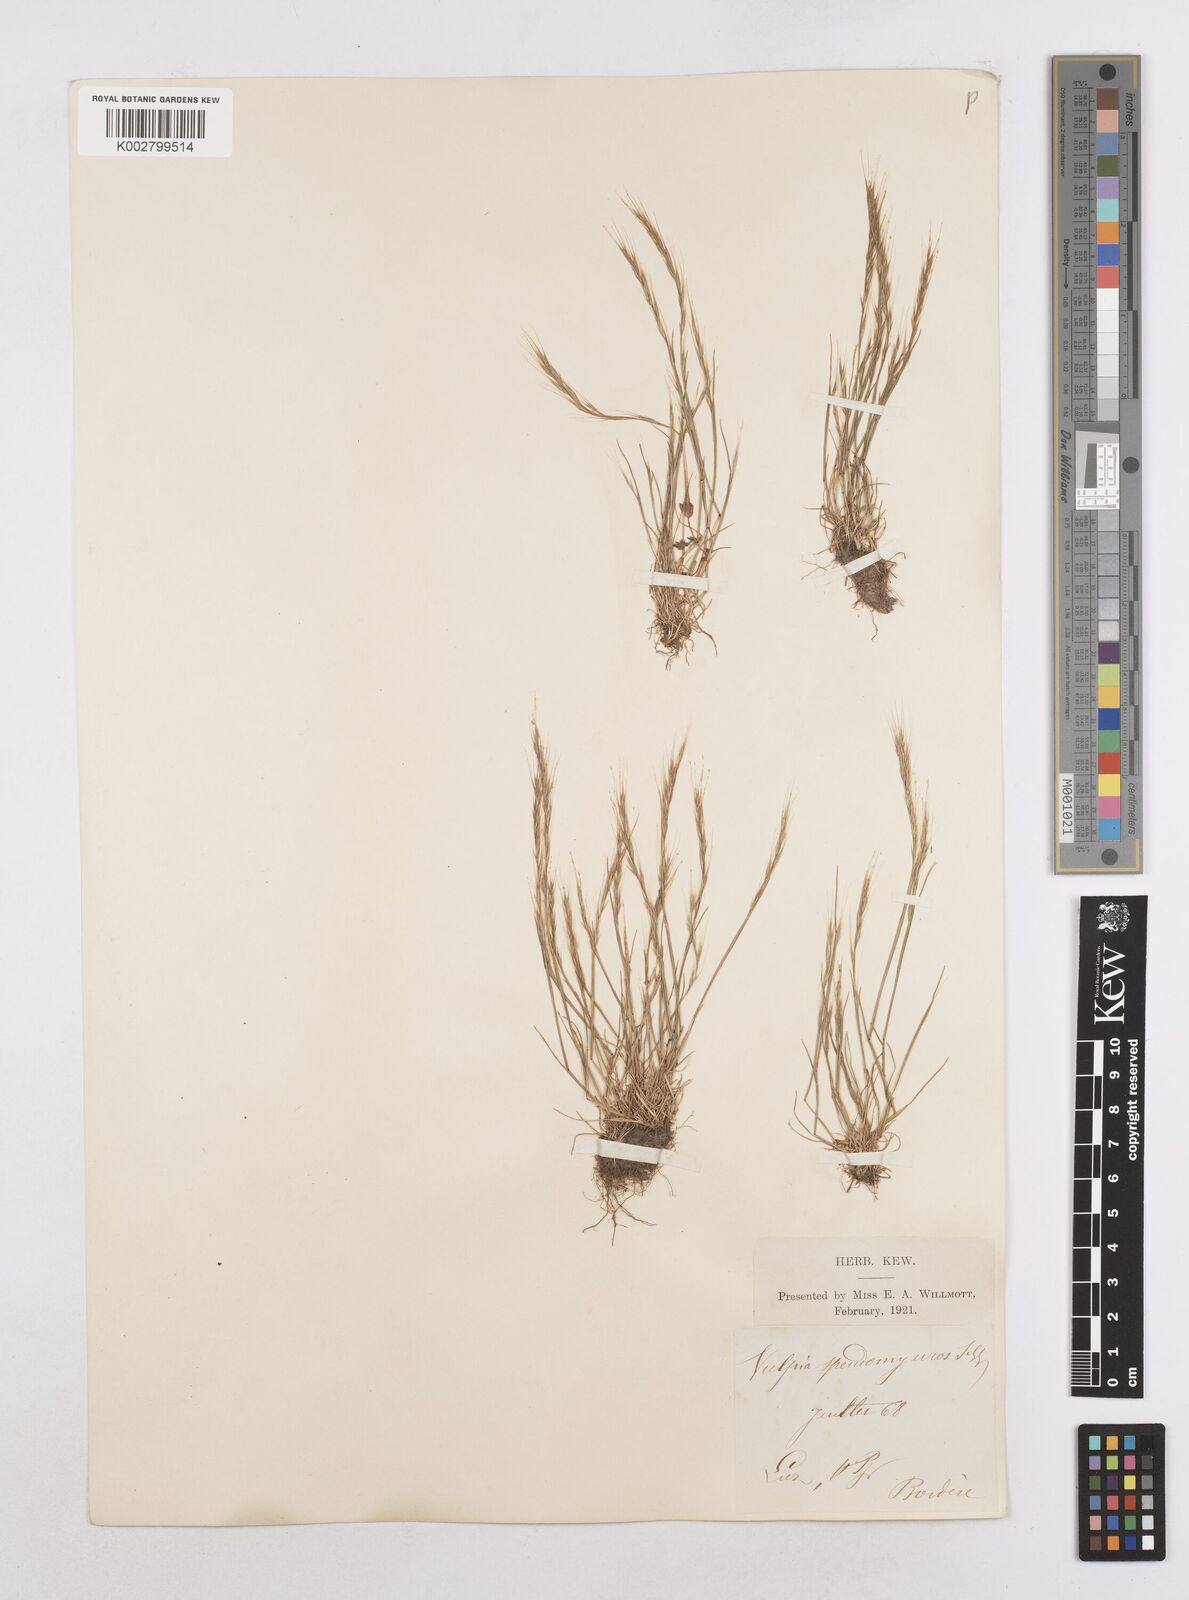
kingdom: Plantae
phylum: Tracheophyta
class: Liliopsida
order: Poales
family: Poaceae
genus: Festuca
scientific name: Festuca myuros
